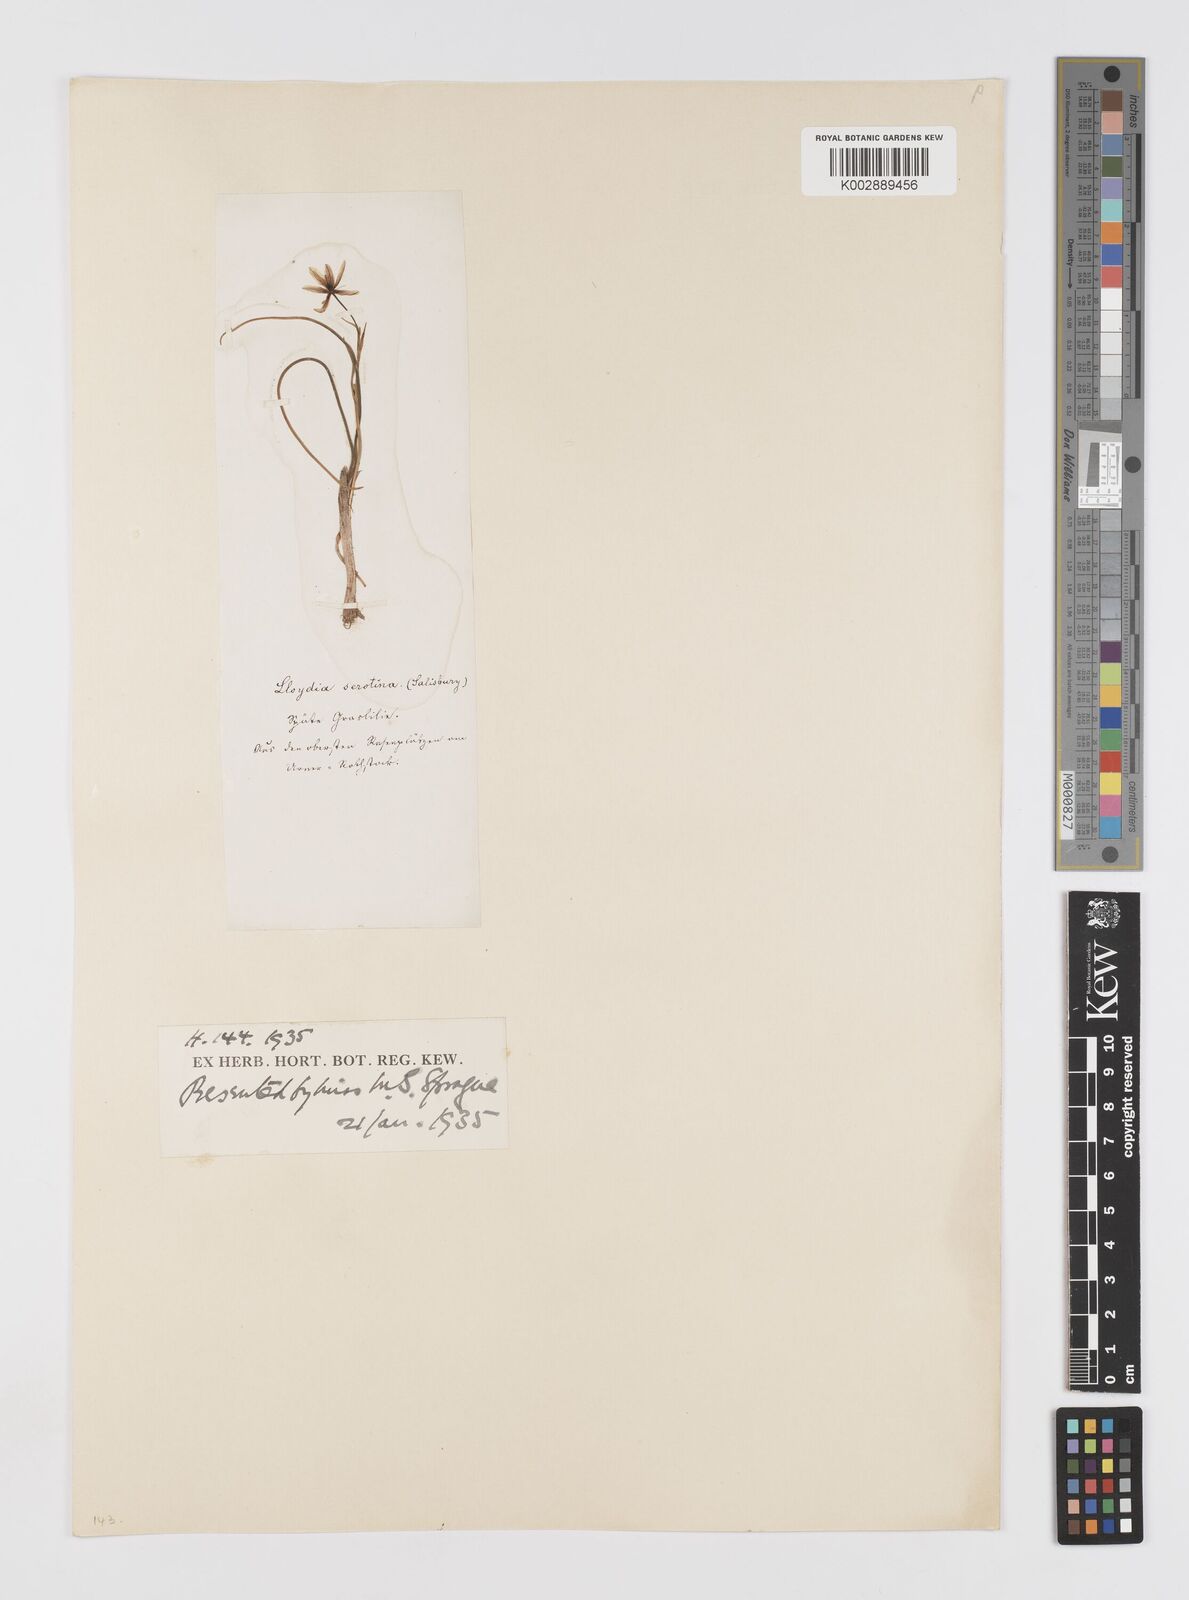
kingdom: Plantae
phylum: Tracheophyta
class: Liliopsida
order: Liliales
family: Liliaceae
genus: Gagea
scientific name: Gagea
